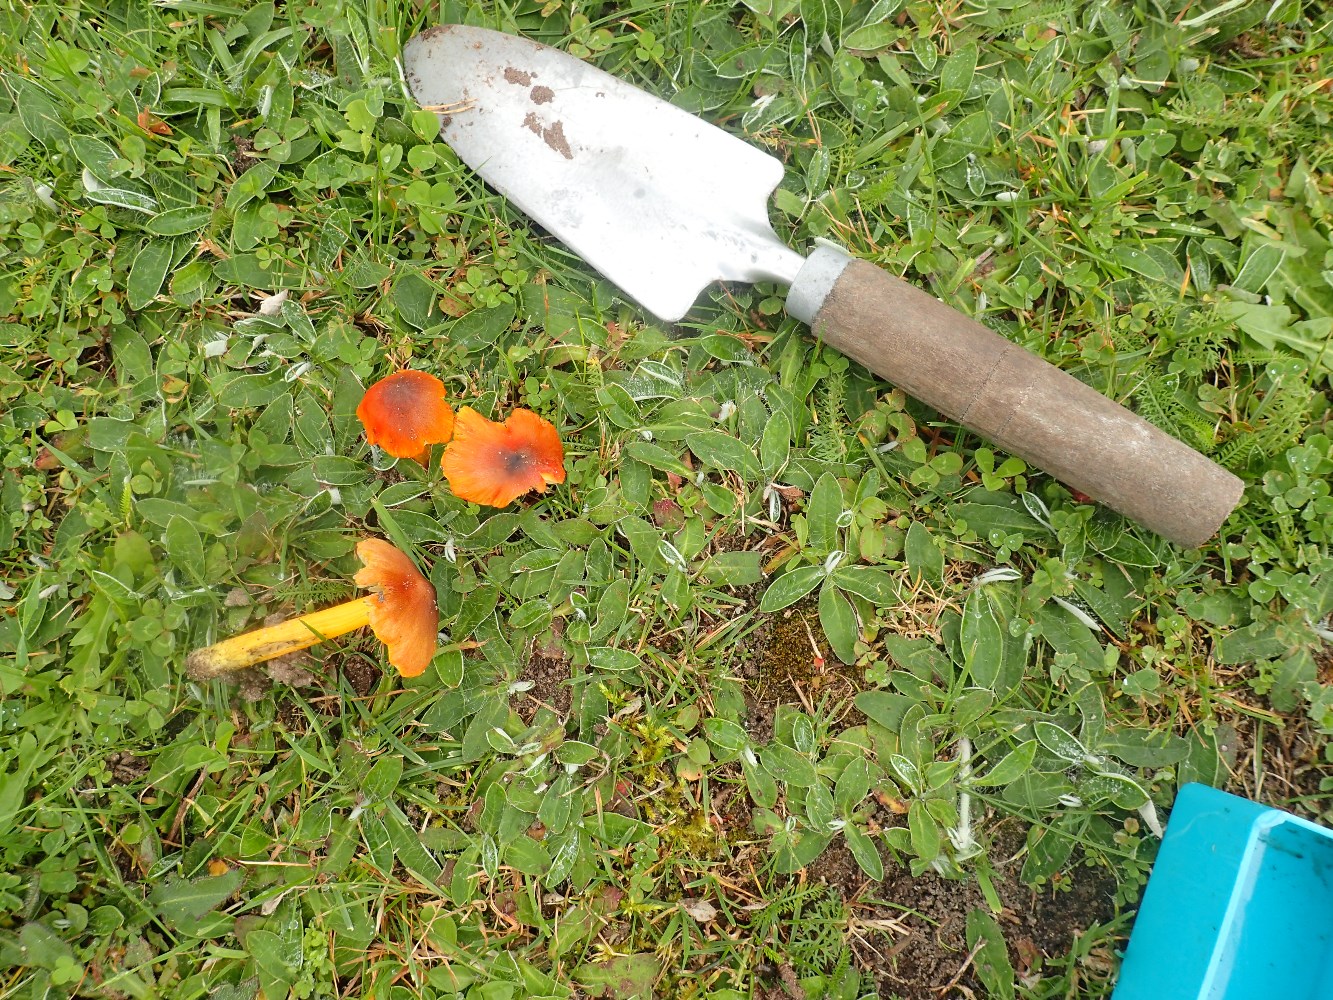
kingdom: Fungi
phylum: Basidiomycota
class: Agaricomycetes
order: Agaricales
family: Hygrophoraceae
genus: Hygrocybe
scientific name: Hygrocybe conica
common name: kegle-vokshat
